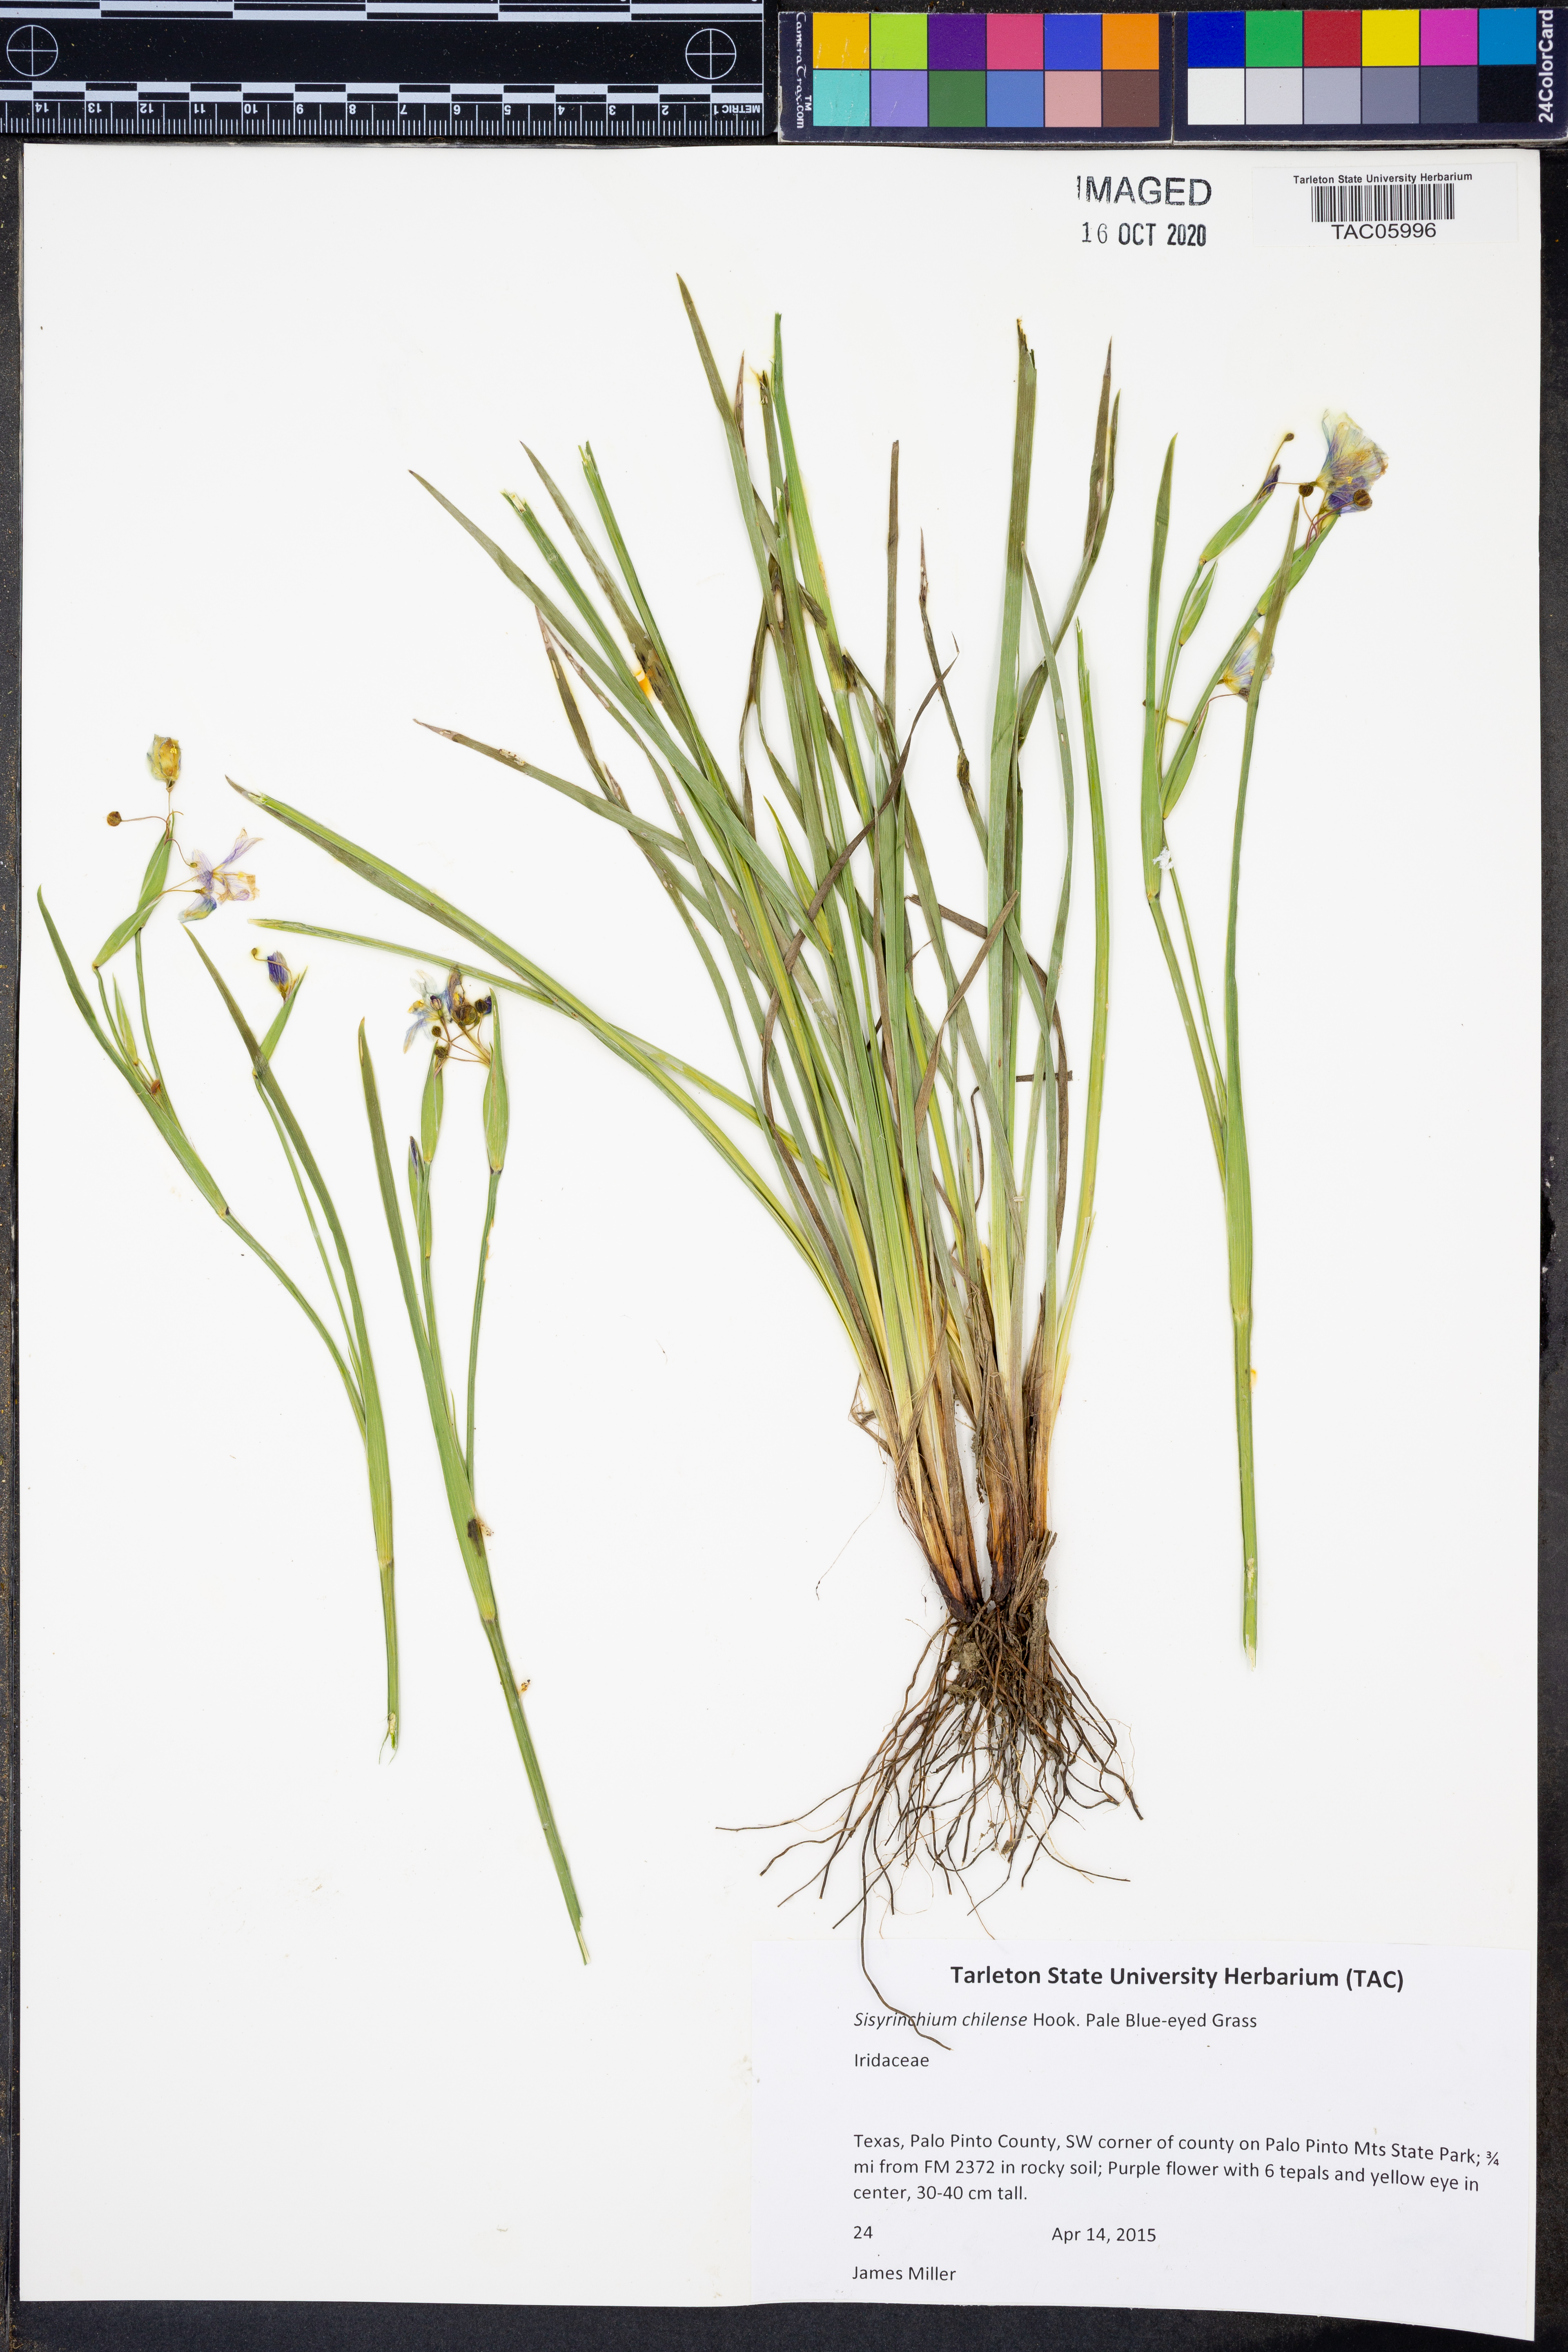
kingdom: Plantae
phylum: Tracheophyta
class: Liliopsida
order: Asparagales
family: Iridaceae
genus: Sisyrinchium
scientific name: Sisyrinchium chilense
